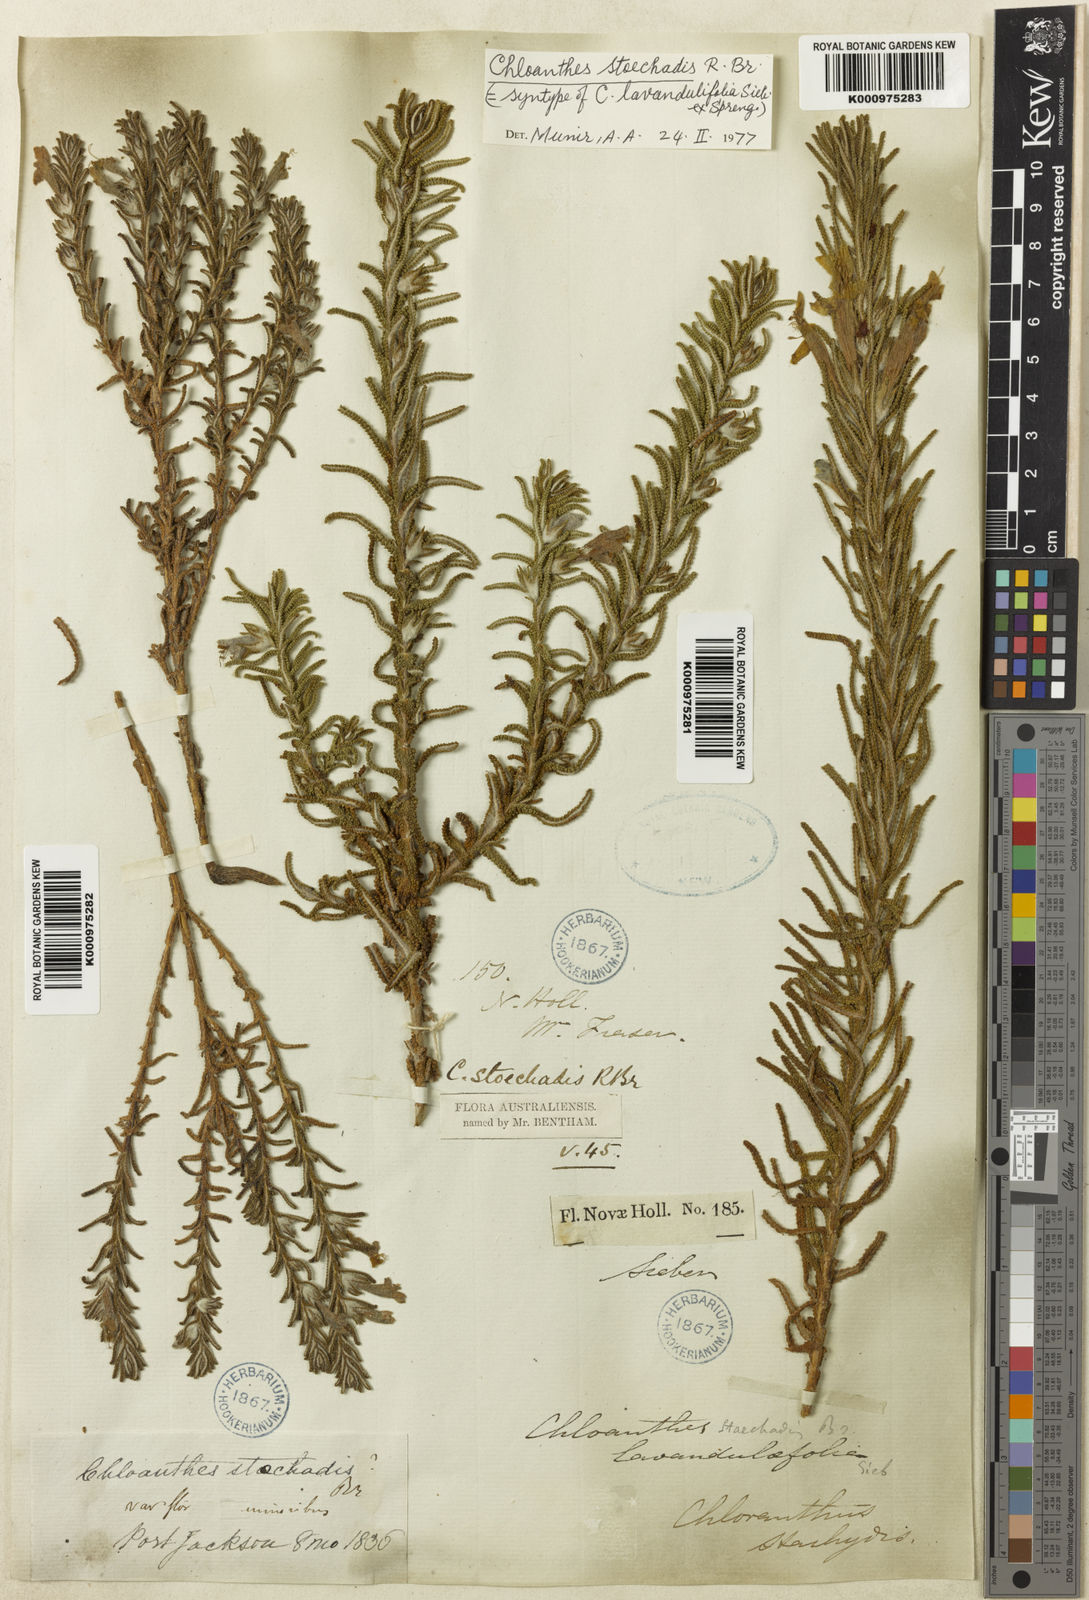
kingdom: Plantae
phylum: Tracheophyta
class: Magnoliopsida
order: Lamiales
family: Lamiaceae
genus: Chloanthes
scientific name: Chloanthes stoechadis
